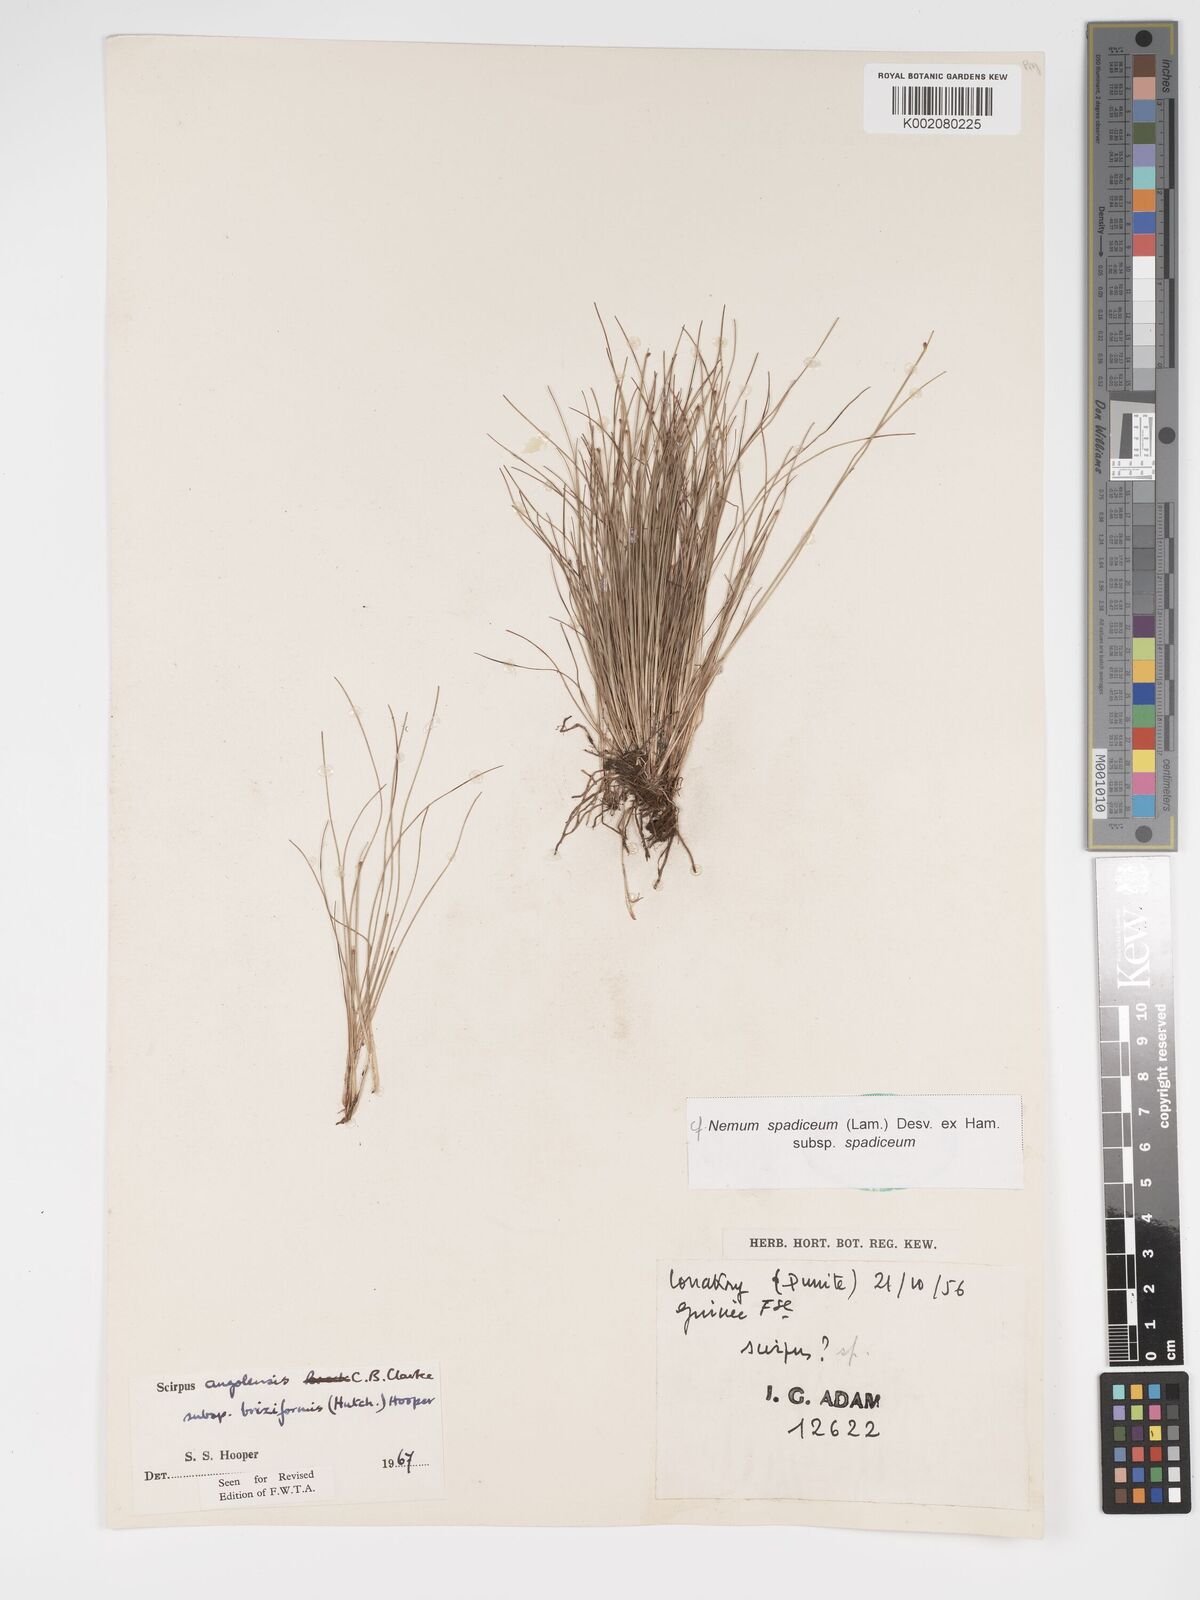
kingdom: Plantae
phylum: Tracheophyta
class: Liliopsida
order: Poales
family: Cyperaceae
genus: Bulbostylis
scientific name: Bulbostylis briziformis
